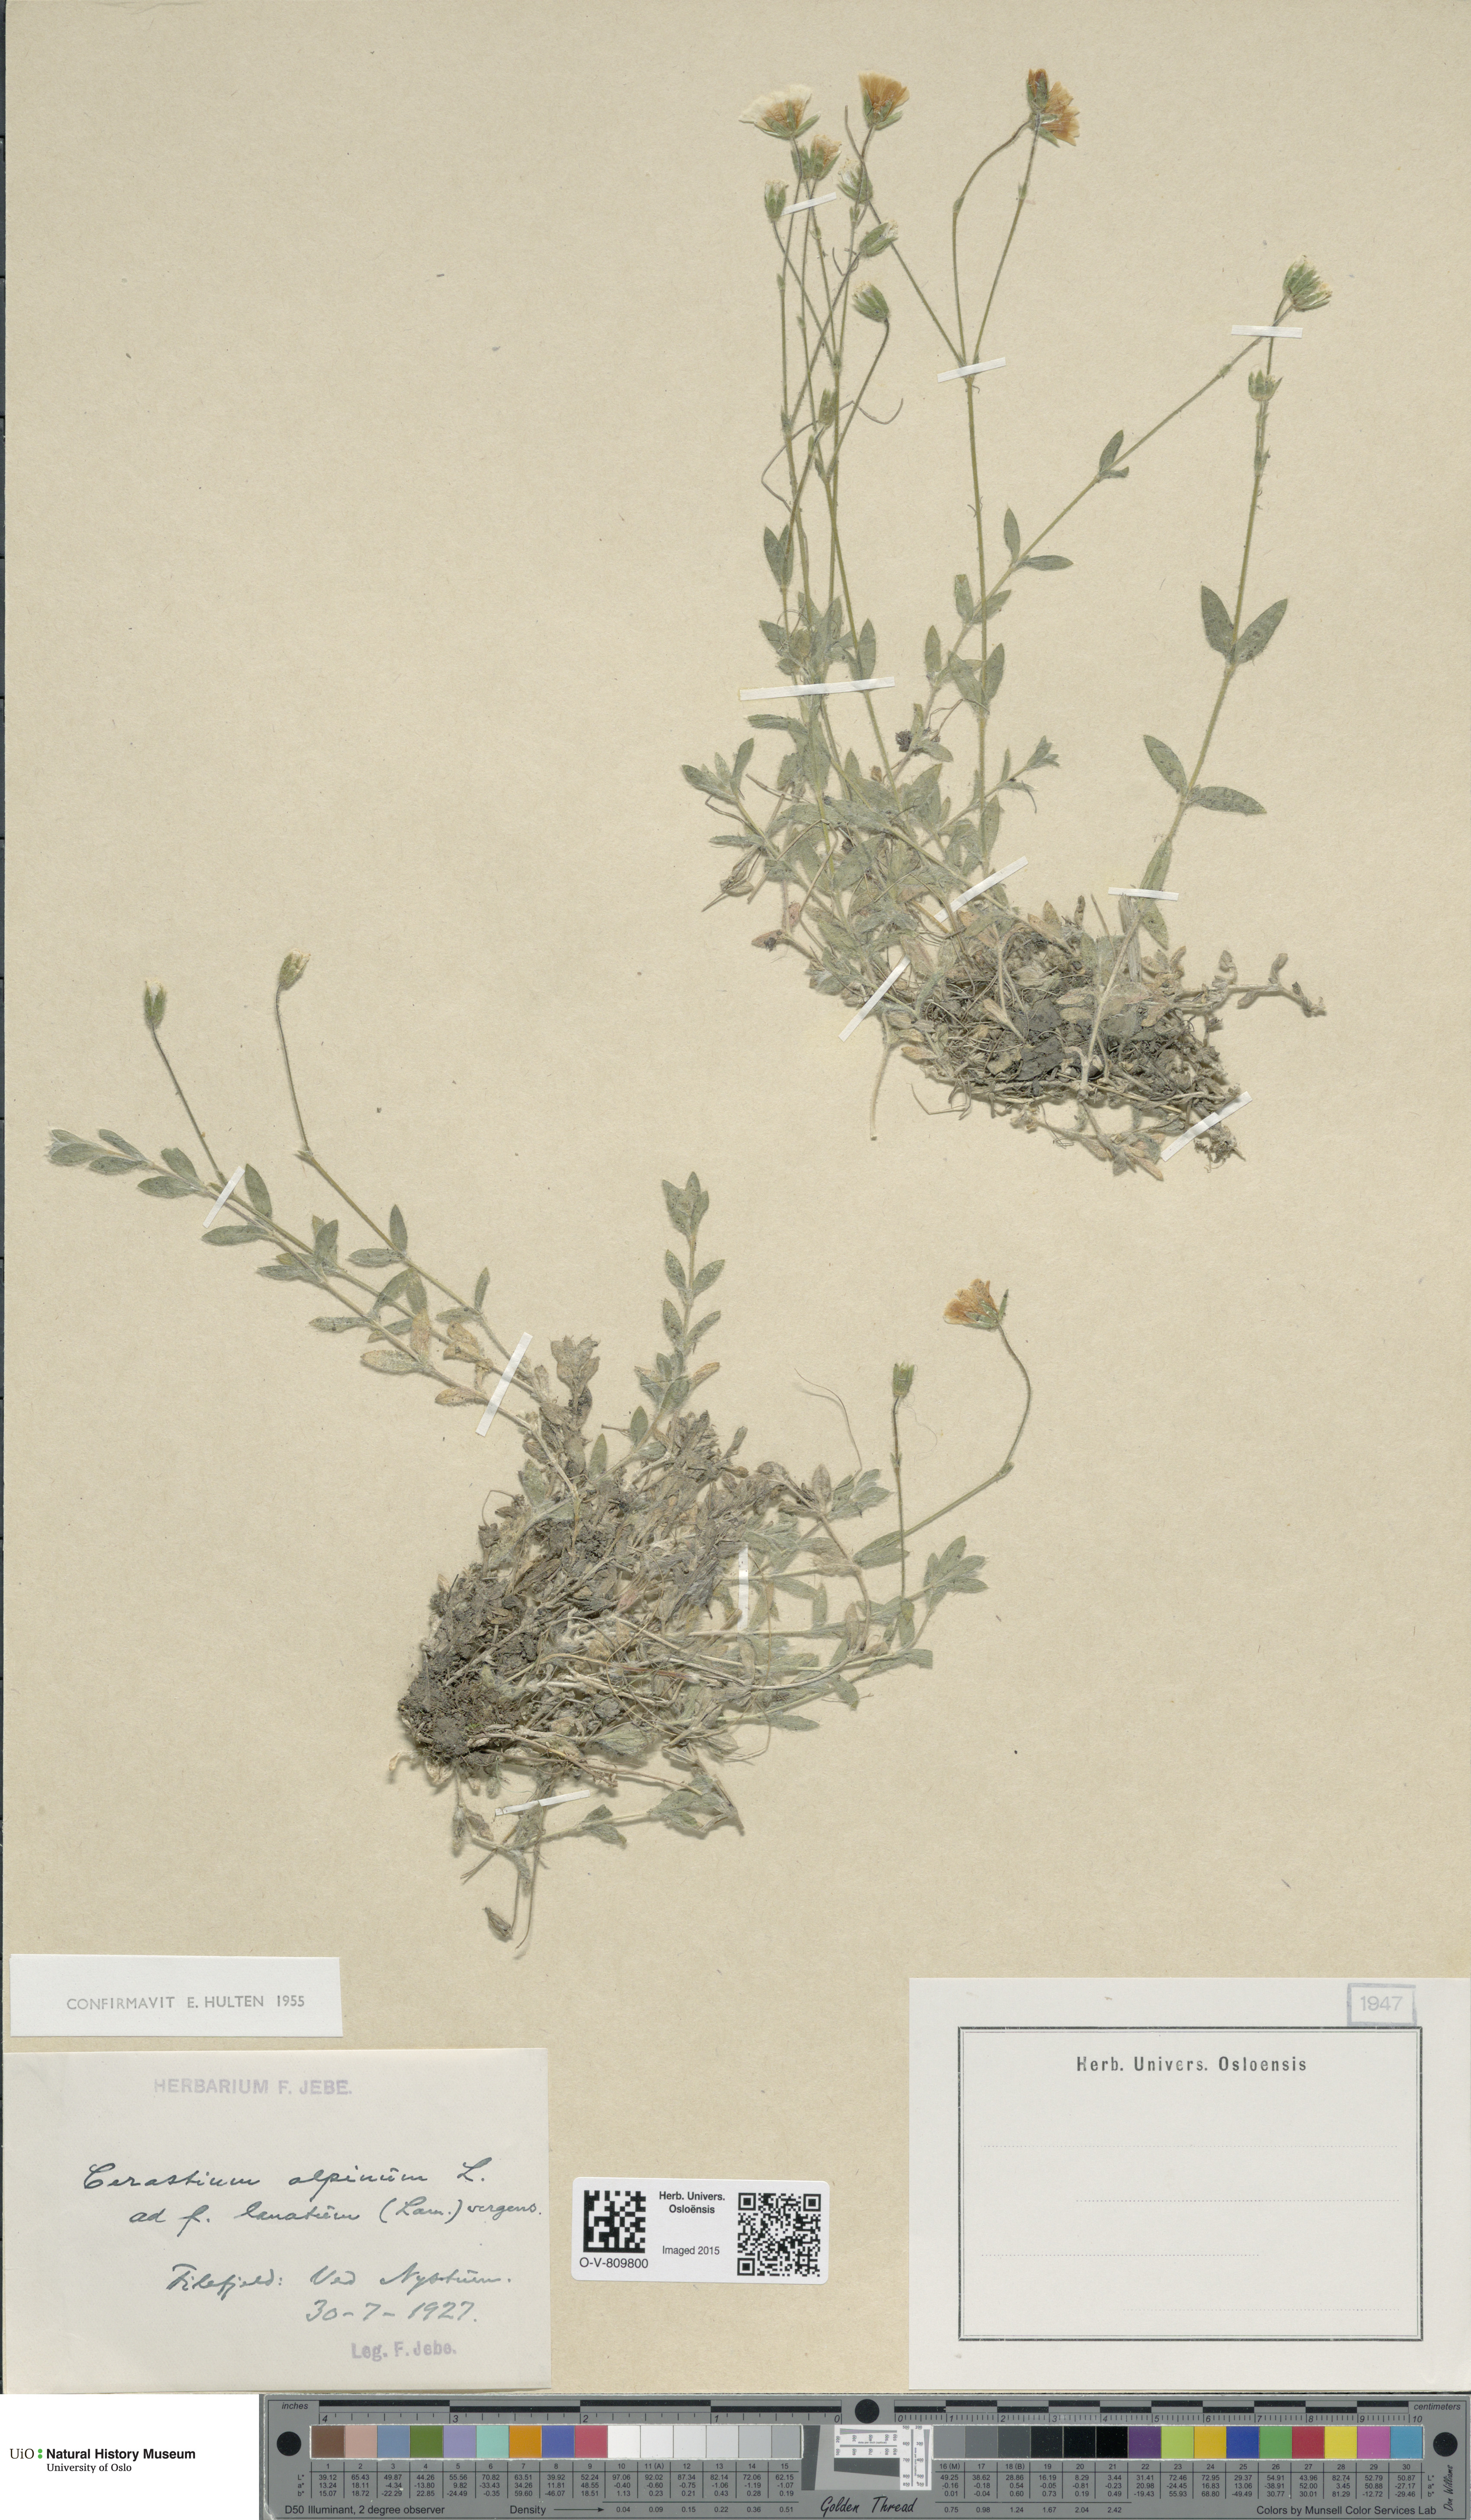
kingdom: Plantae
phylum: Tracheophyta
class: Magnoliopsida
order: Caryophyllales
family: Caryophyllaceae
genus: Cerastium
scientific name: Cerastium alpinum
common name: Alpine mouse-ear
